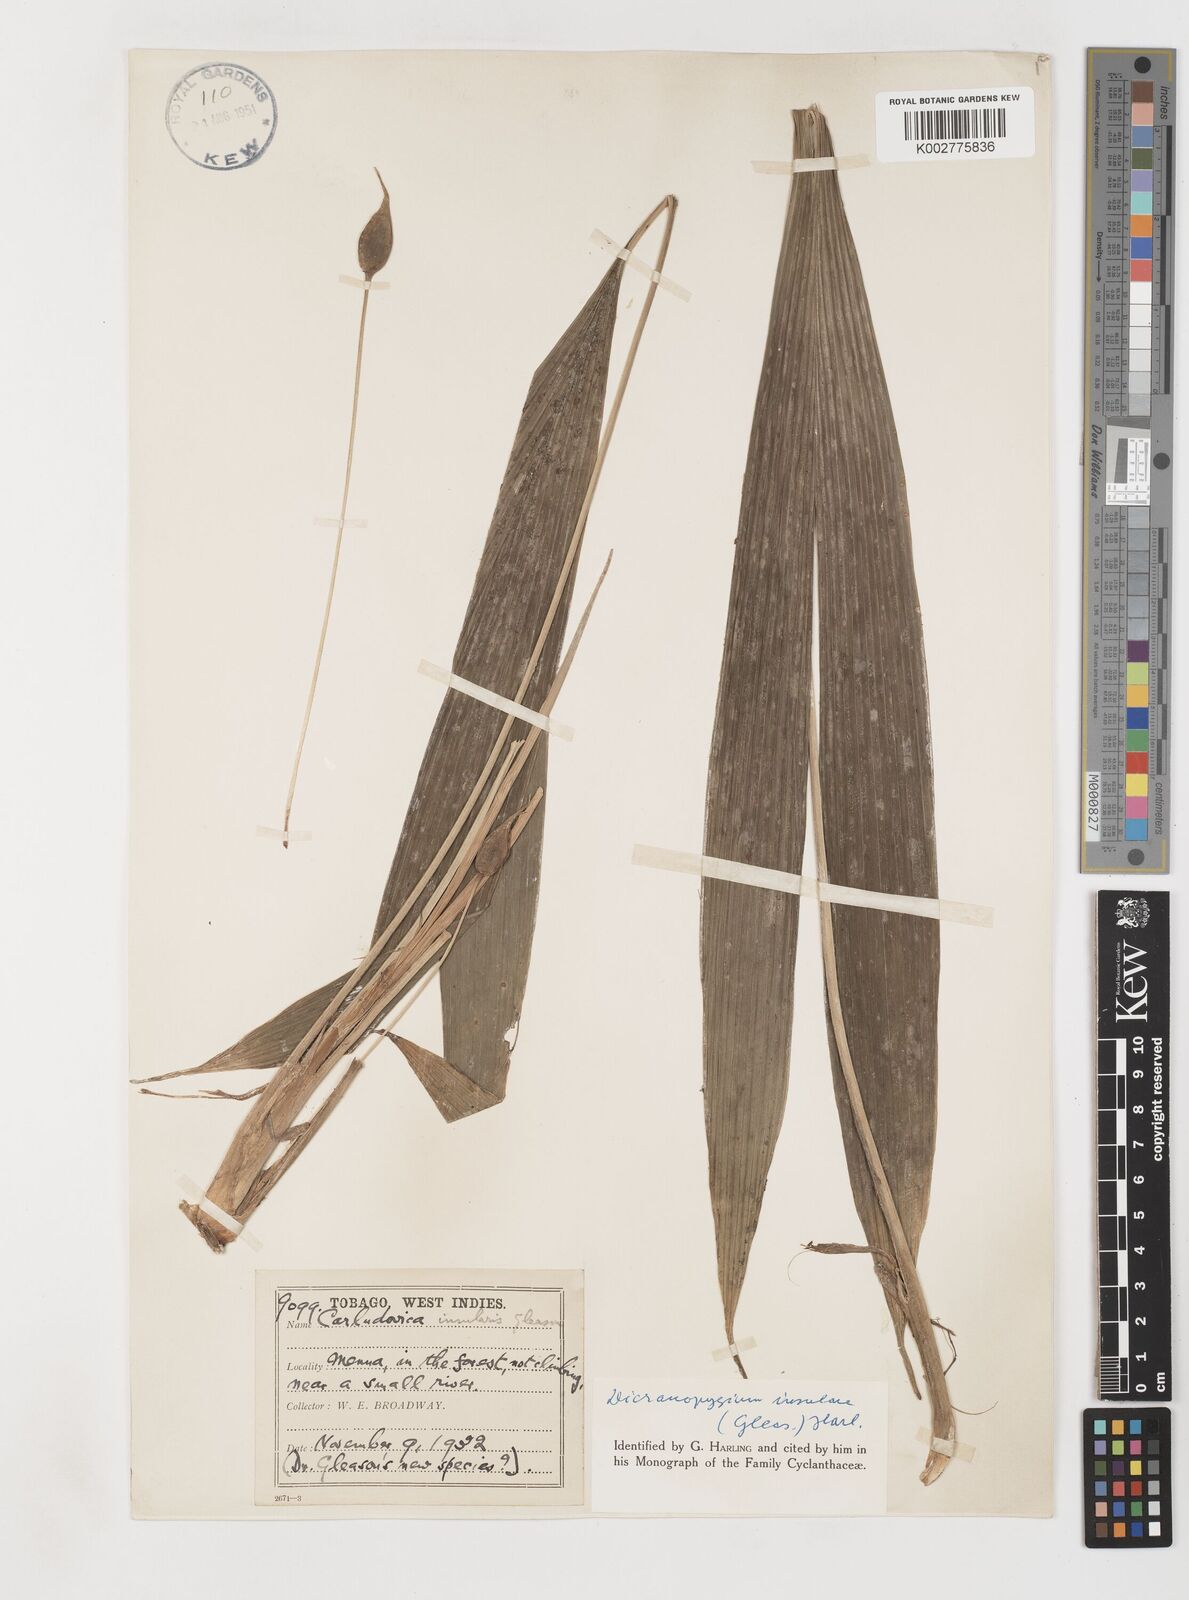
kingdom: Plantae
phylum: Tracheophyta
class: Liliopsida
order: Pandanales
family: Cyclanthaceae
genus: Dicranopygium
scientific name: Dicranopygium insulare
